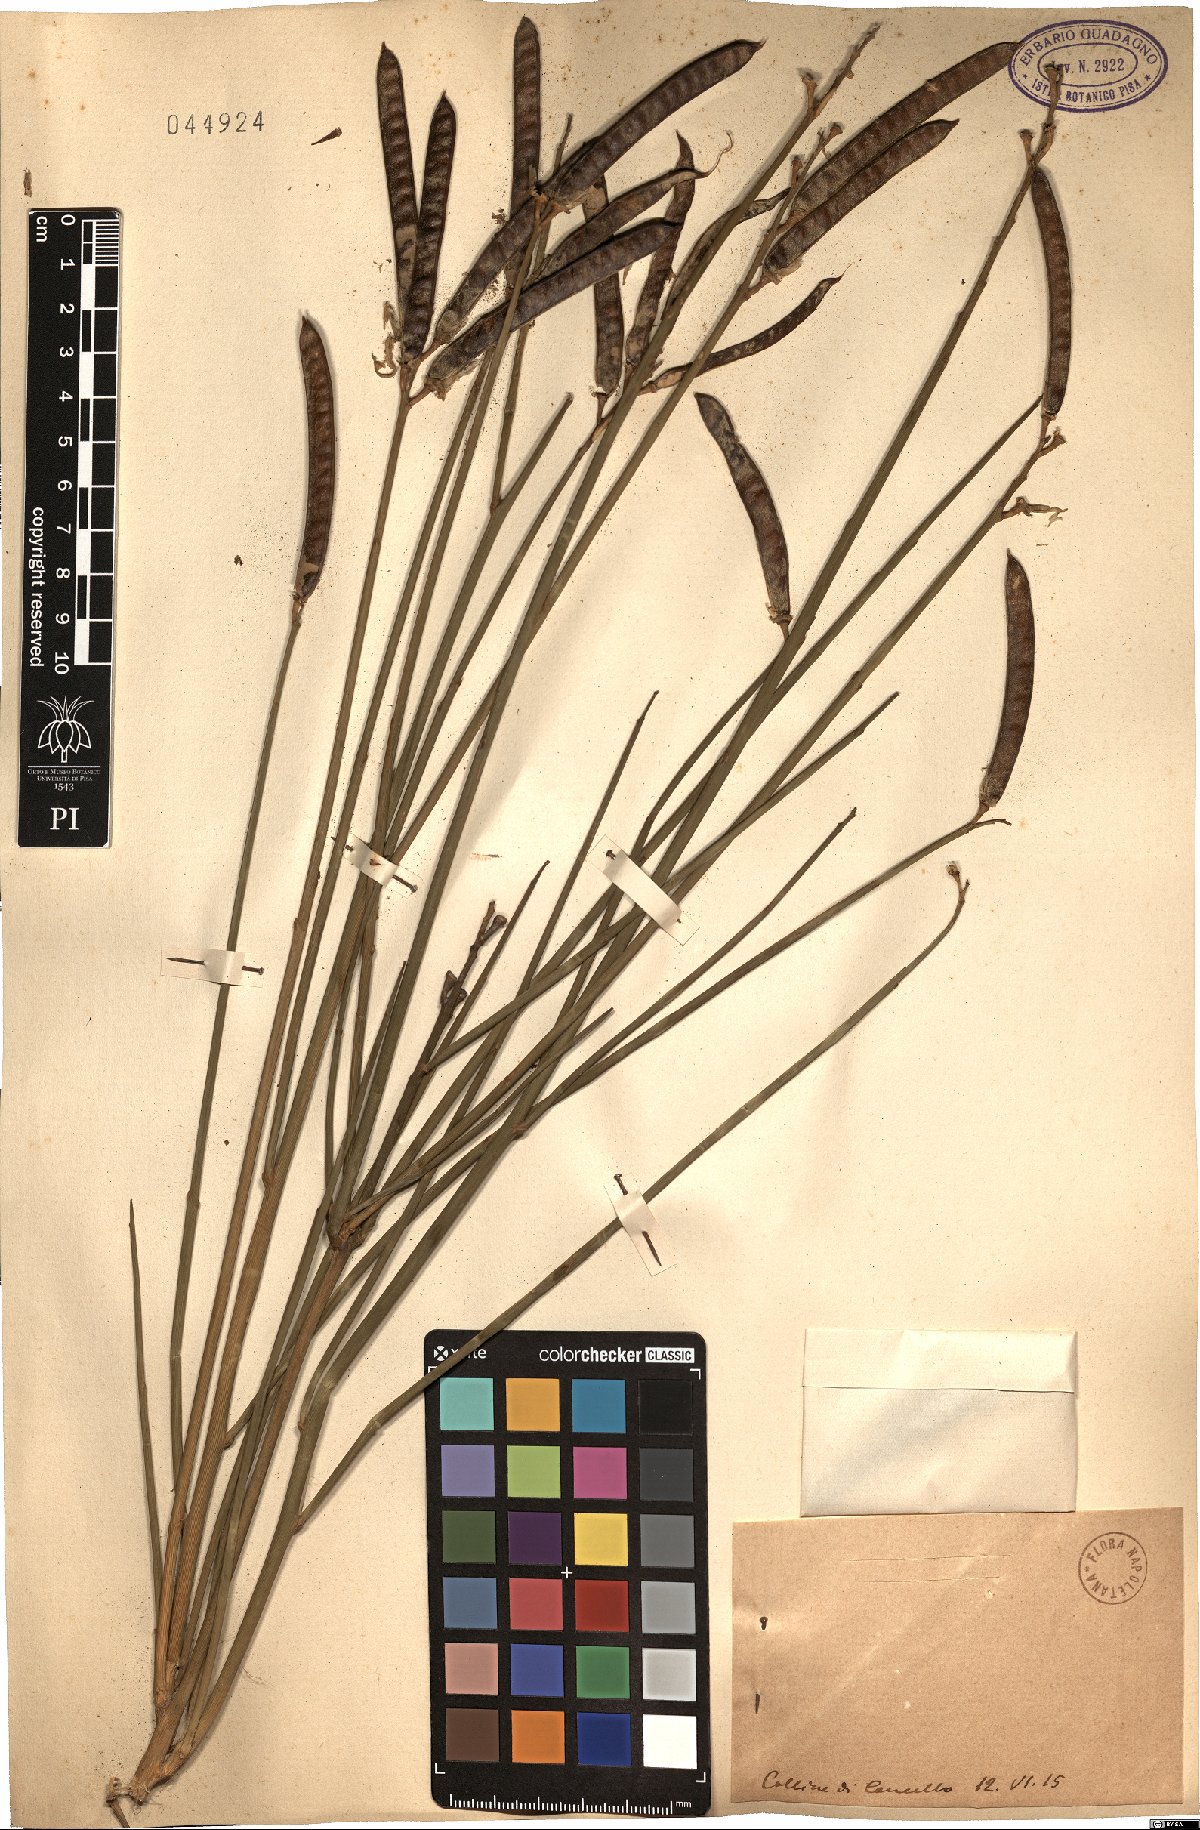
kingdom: Plantae
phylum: Tracheophyta
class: Magnoliopsida
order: Fabales
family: Fabaceae
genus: Spartium
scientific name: Spartium
